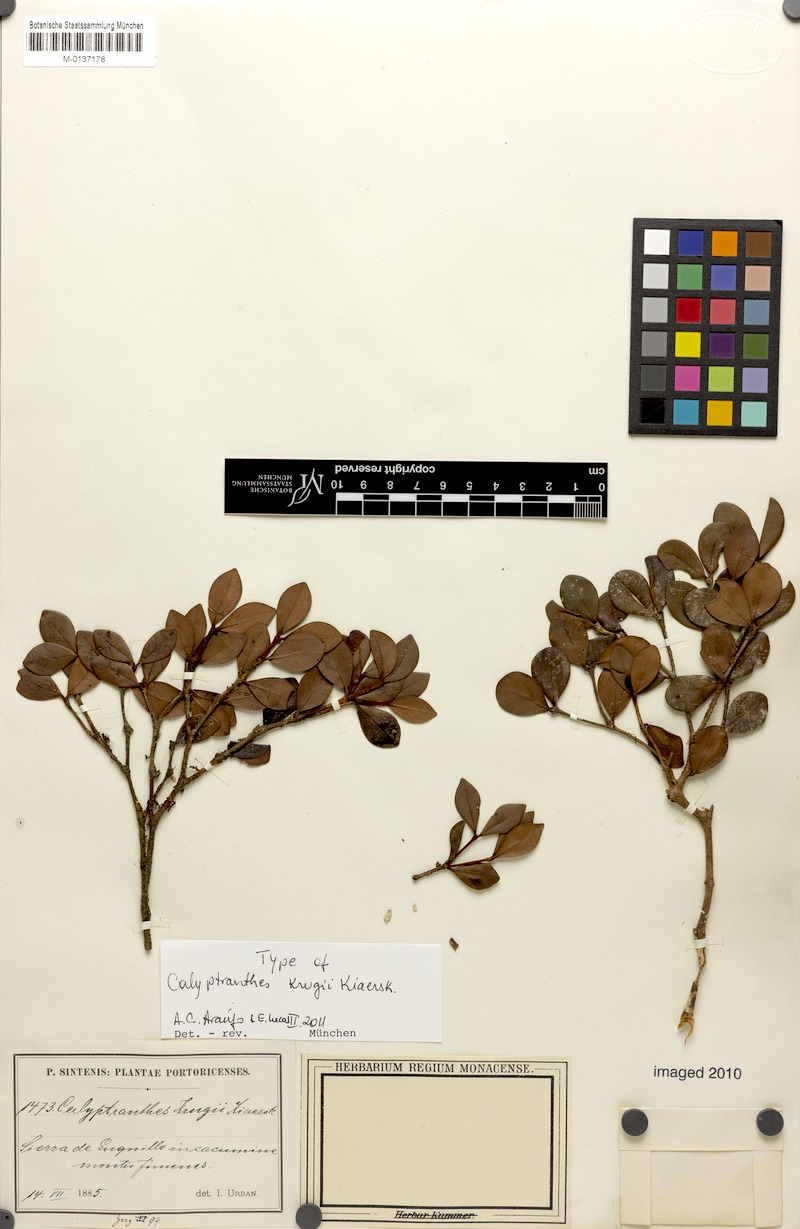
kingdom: Plantae
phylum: Tracheophyta
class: Magnoliopsida
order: Myrtales
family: Myrtaceae
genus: Myrcia
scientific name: Myrcia krugii
